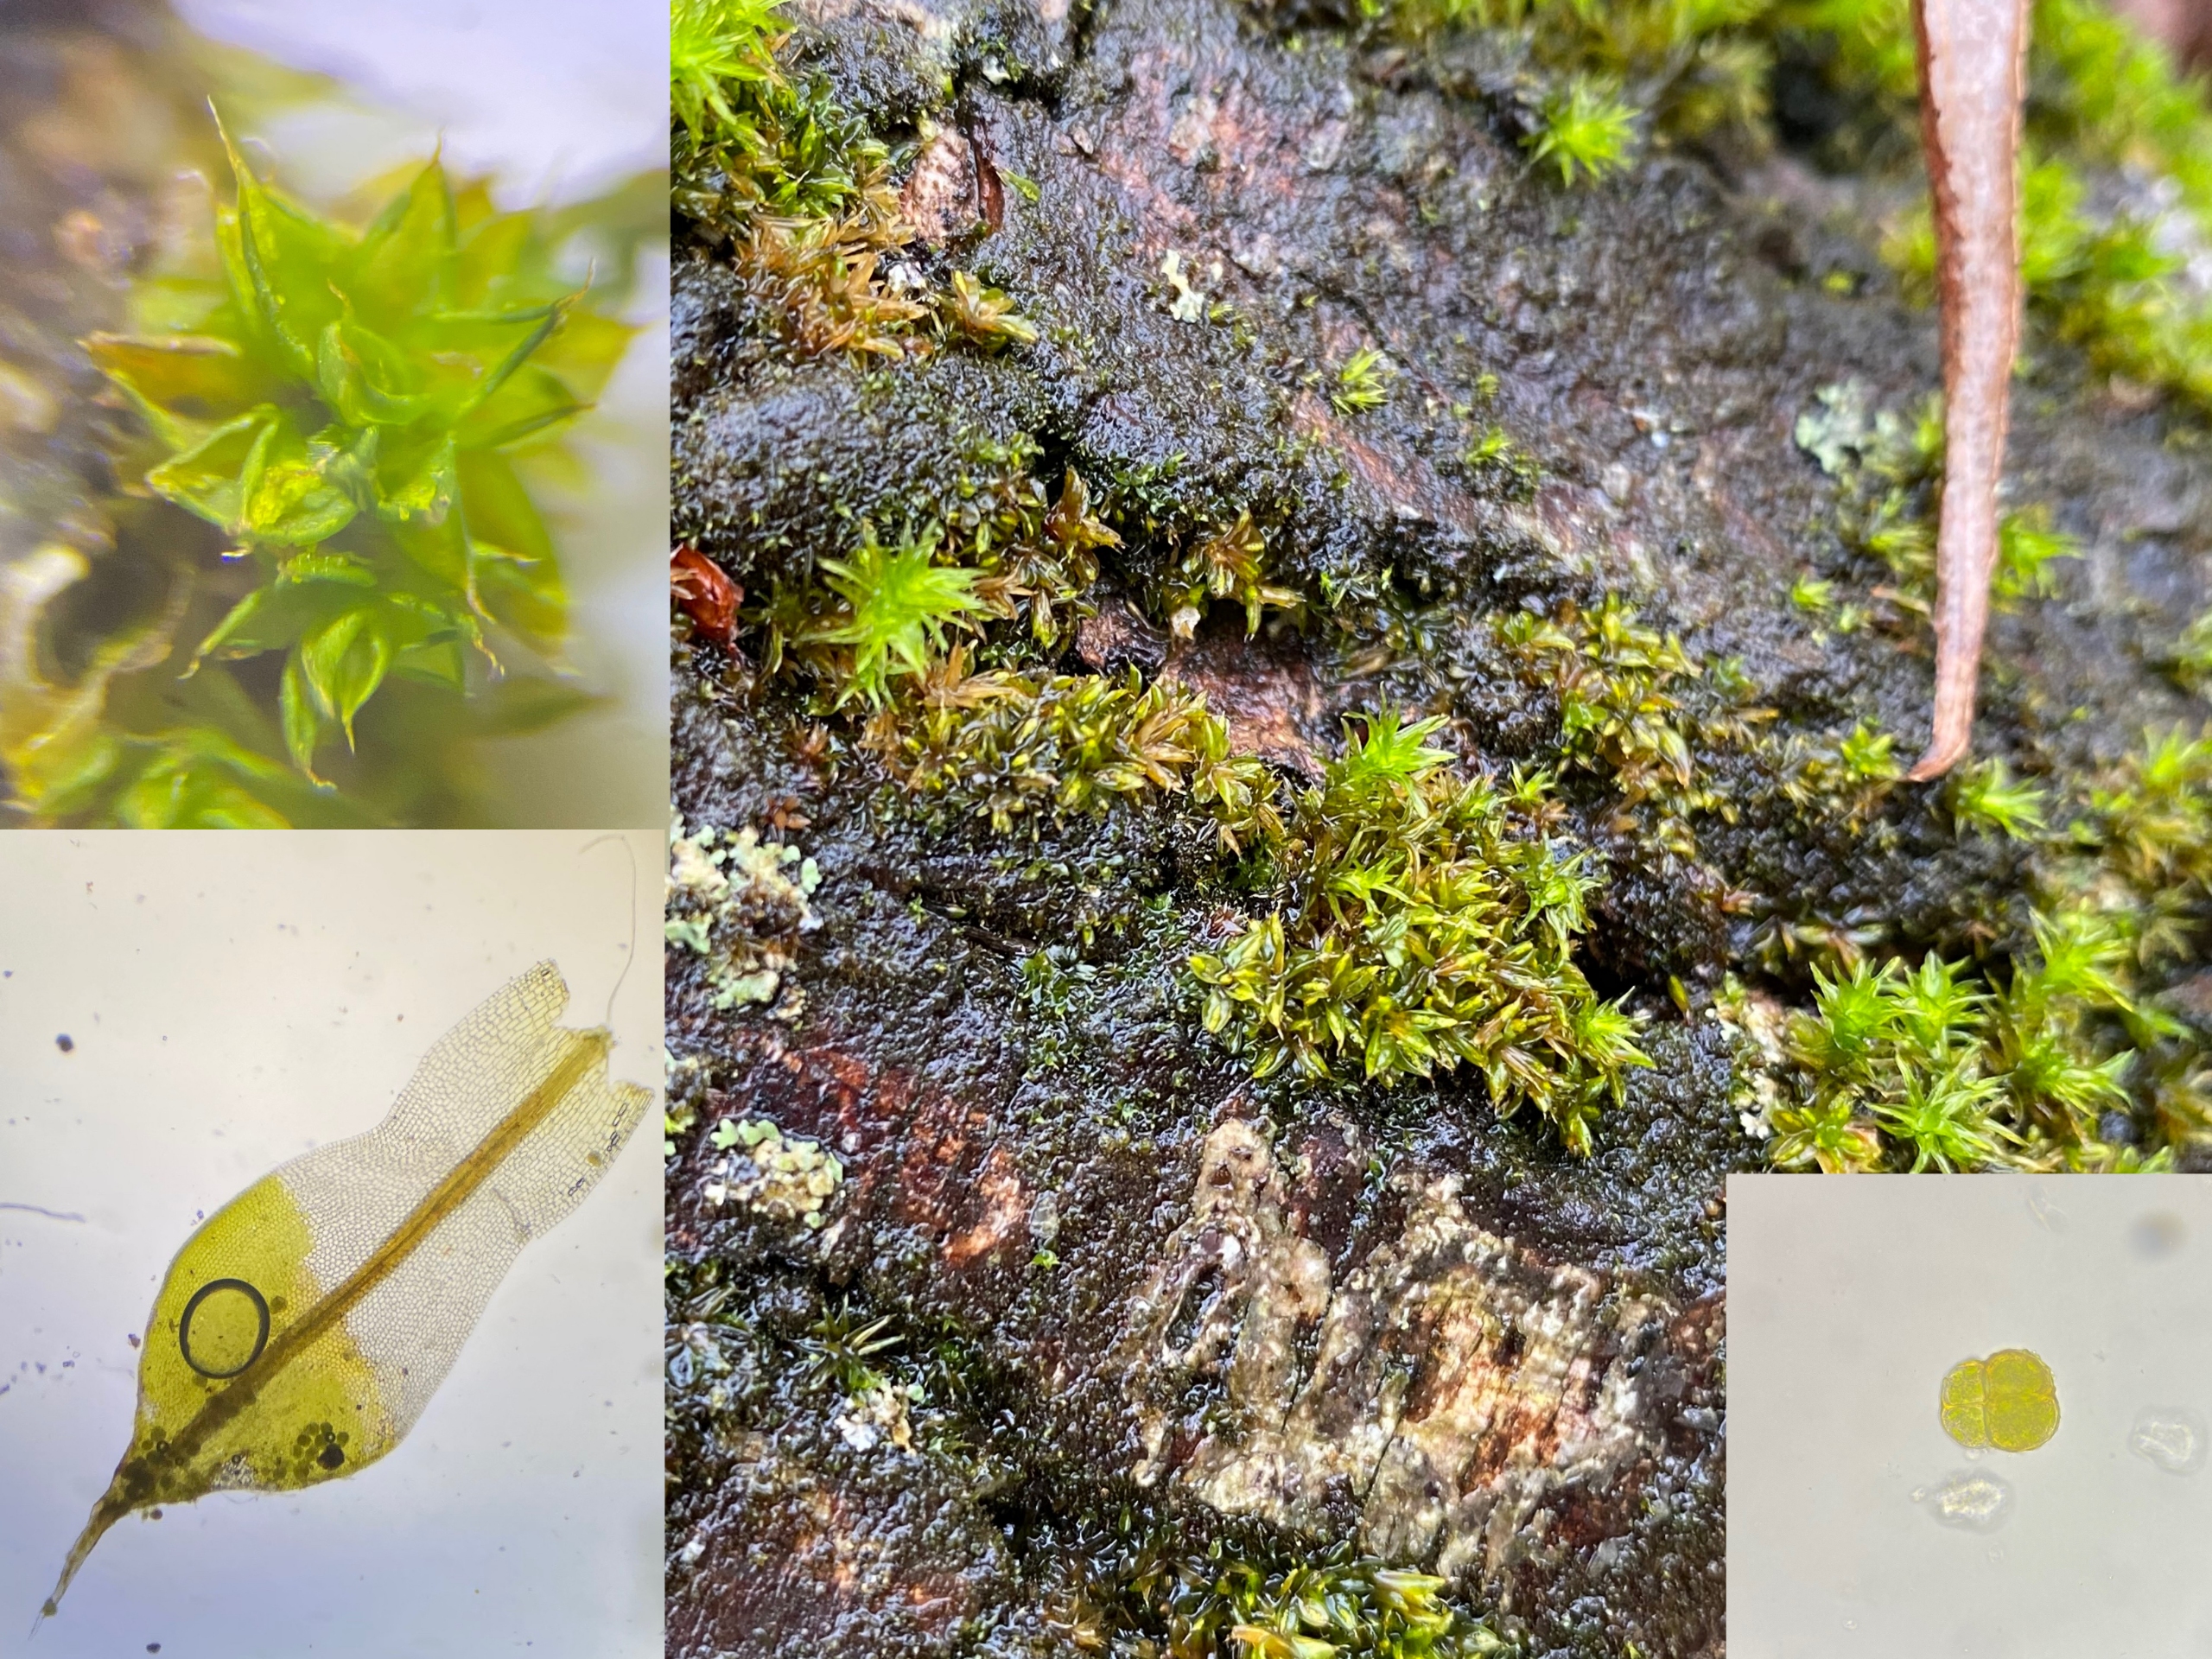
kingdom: Plantae
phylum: Bryophyta
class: Bryopsida
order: Pottiales
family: Pottiaceae
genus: Syntrichia
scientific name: Syntrichia papillosa
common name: Bark-hårstjerne
